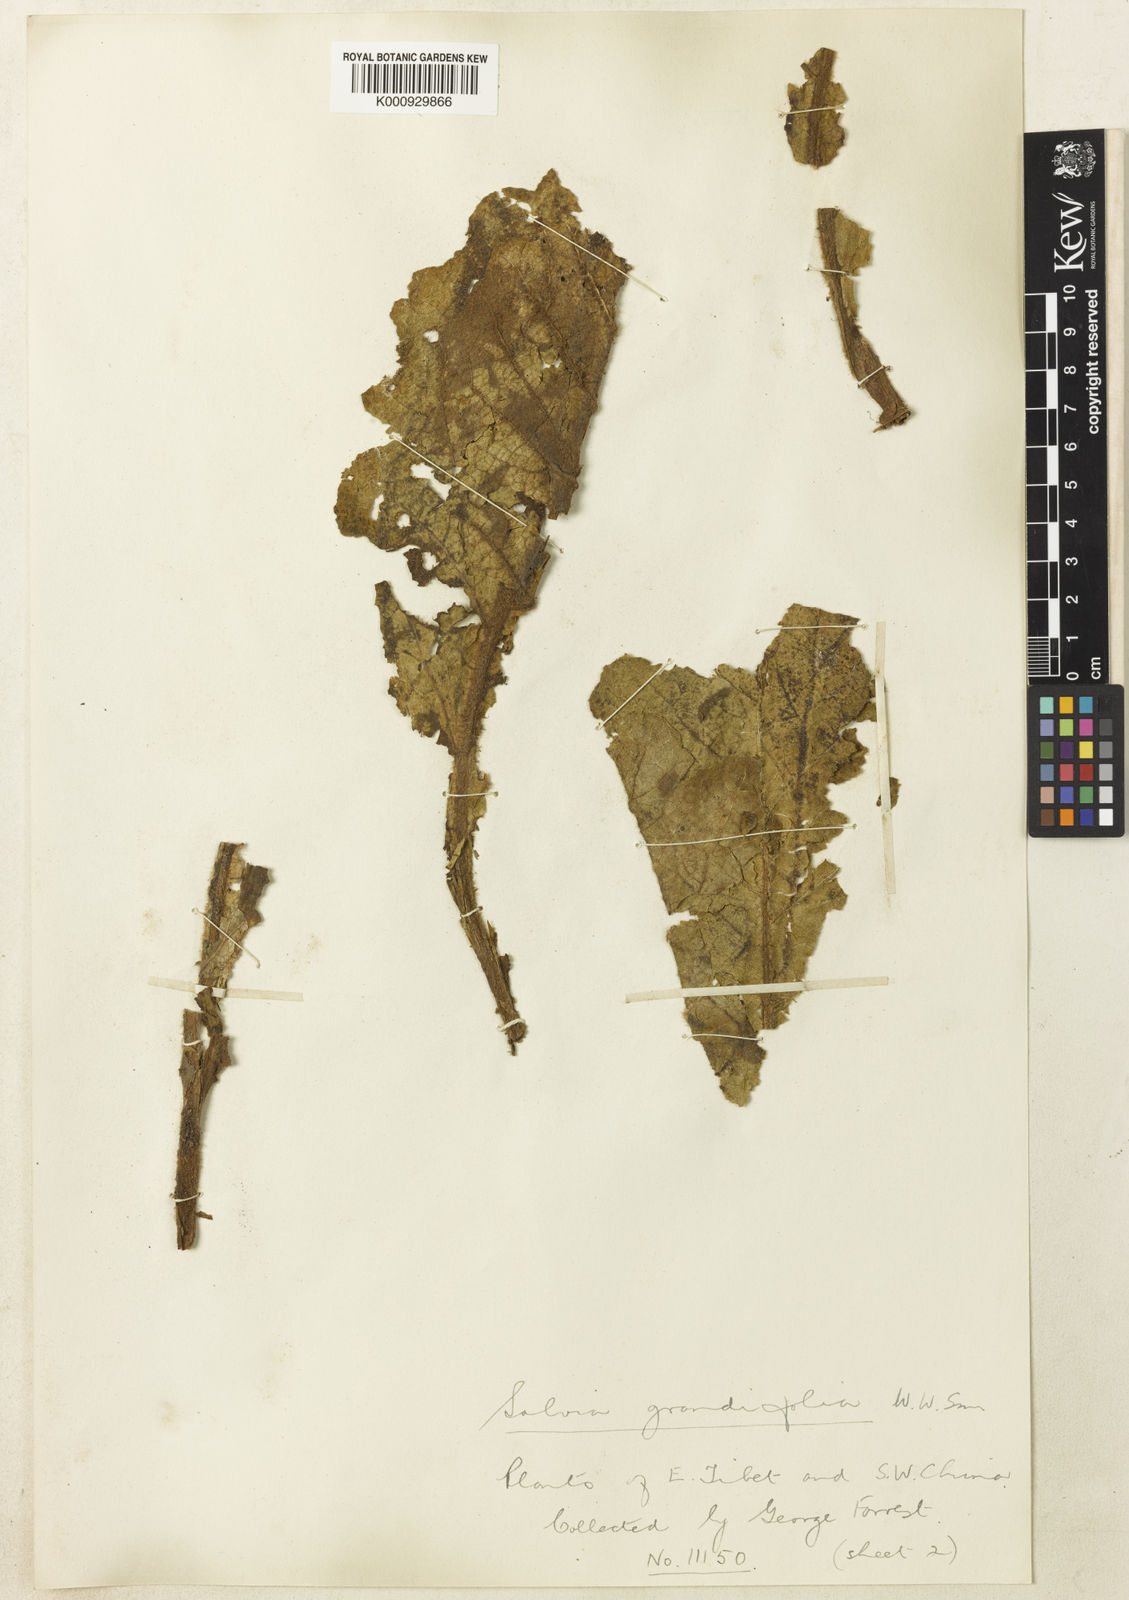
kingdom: Plantae
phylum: Tracheophyta
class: Magnoliopsida
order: Lamiales
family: Lamiaceae
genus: Salvia
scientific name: Salvia grandifolia
